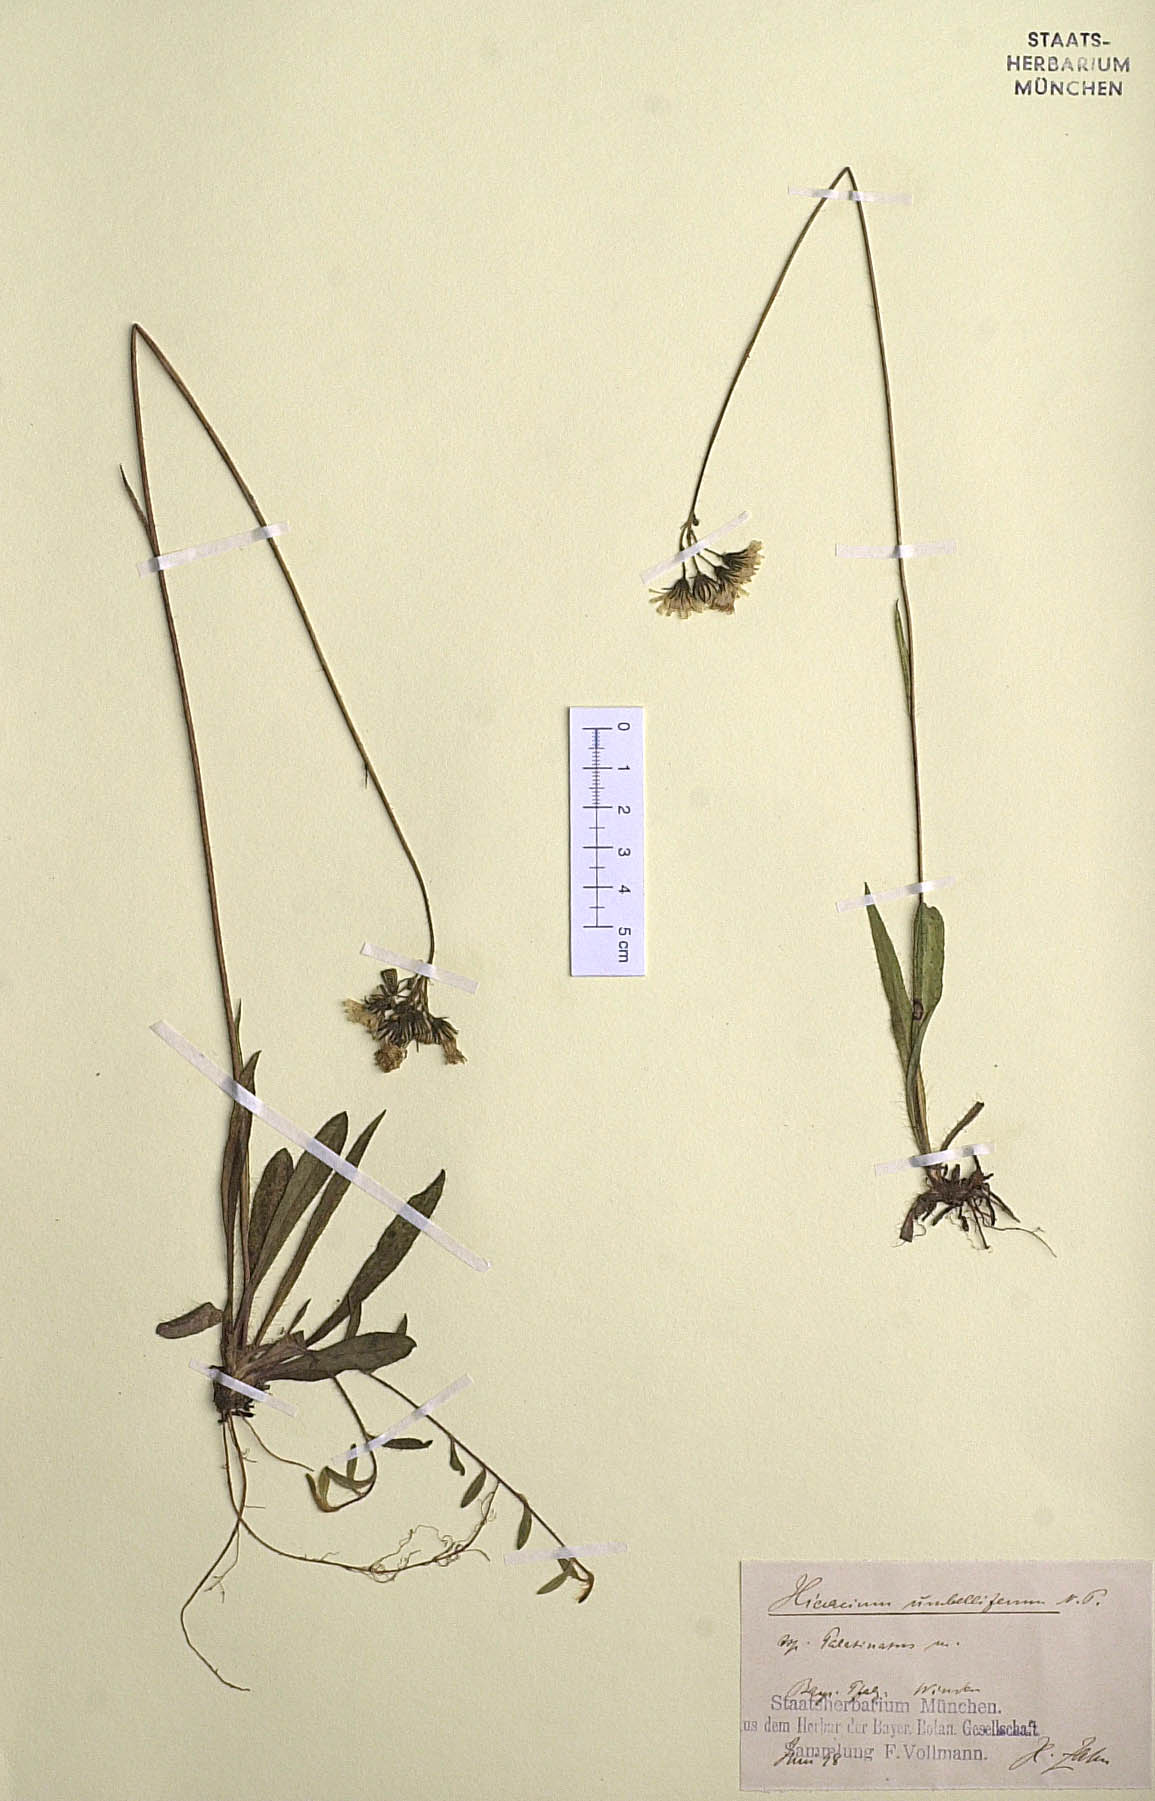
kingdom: Plantae
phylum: Tracheophyta
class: Magnoliopsida
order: Asterales
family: Asteraceae
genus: Pilosella
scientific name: Pilosella bauhini
